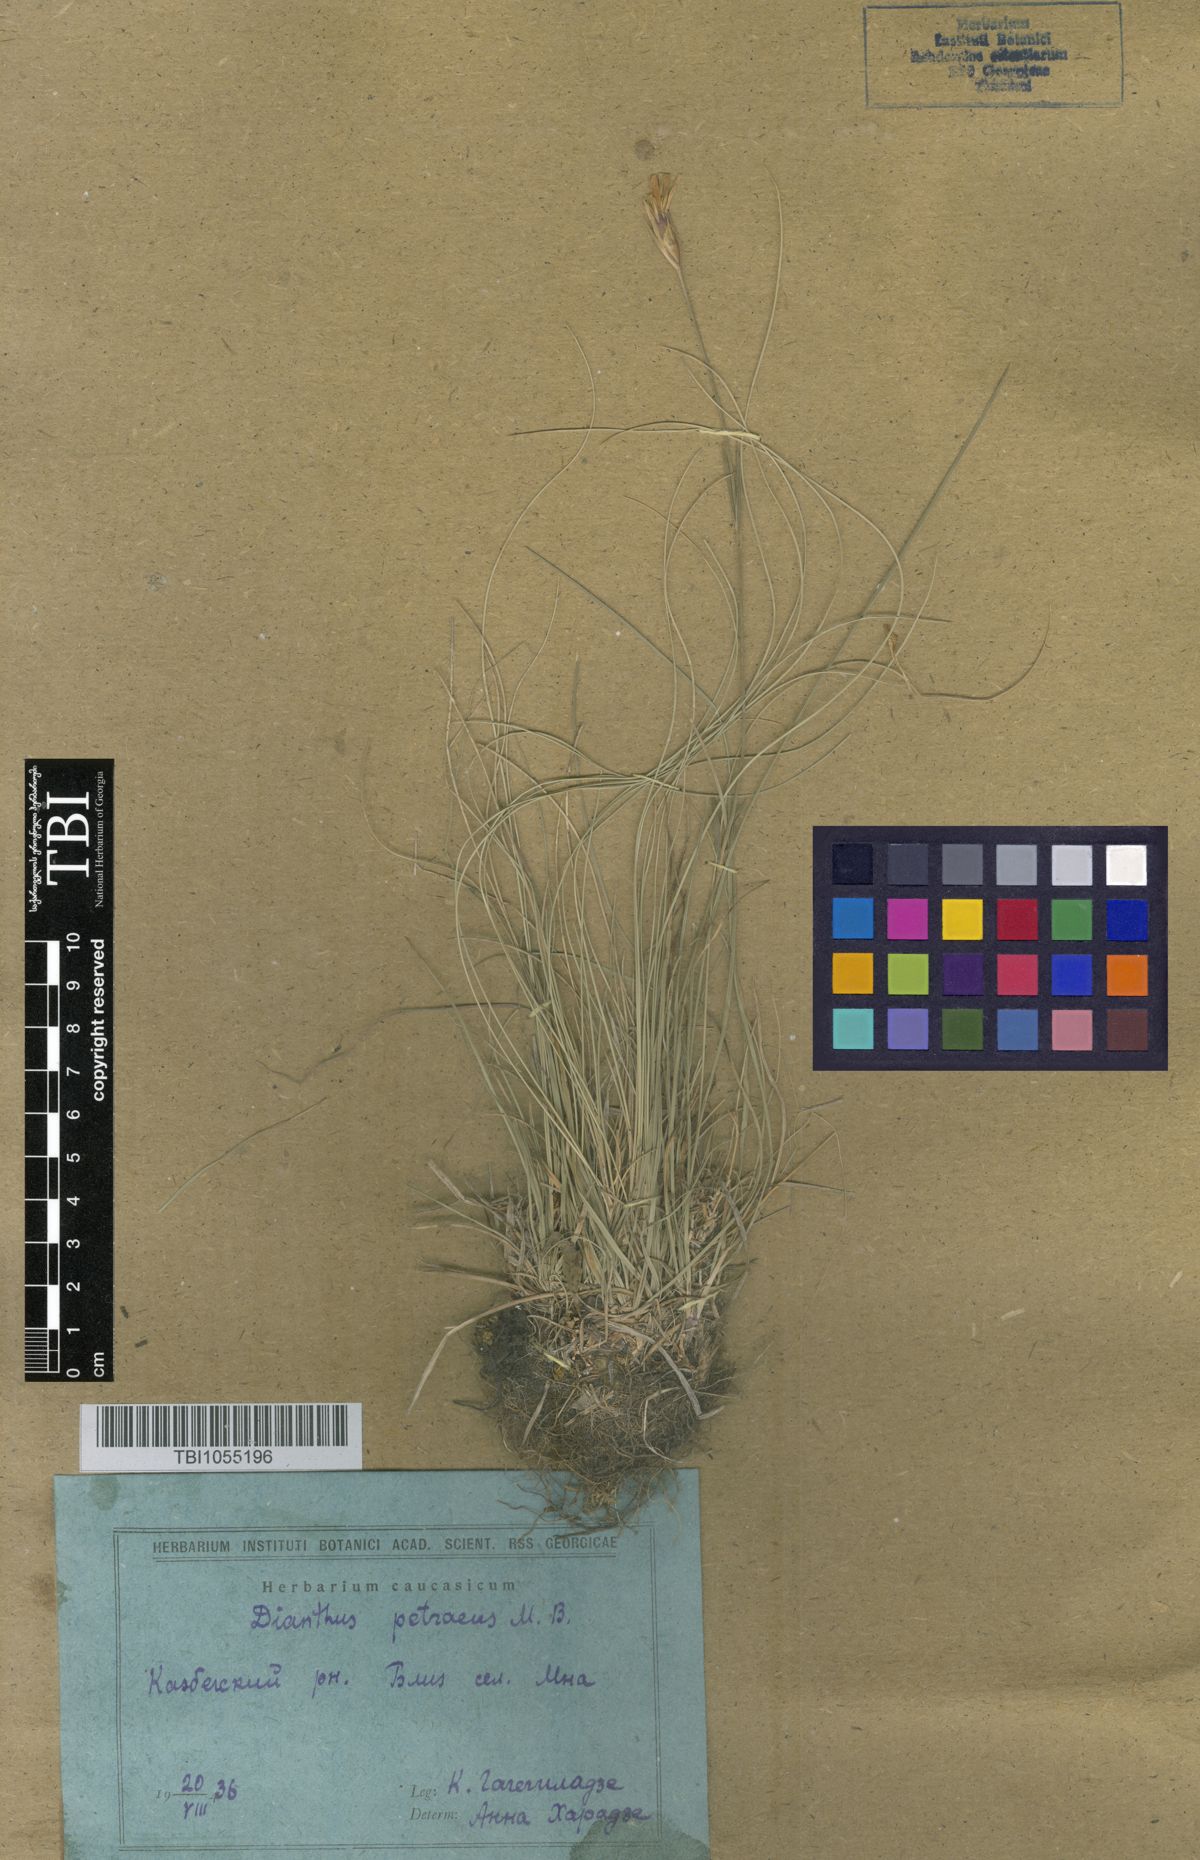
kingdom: Plantae
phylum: Tracheophyta
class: Magnoliopsida
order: Caryophyllales
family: Caryophyllaceae
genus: Dianthus
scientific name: Dianthus cretaceus
